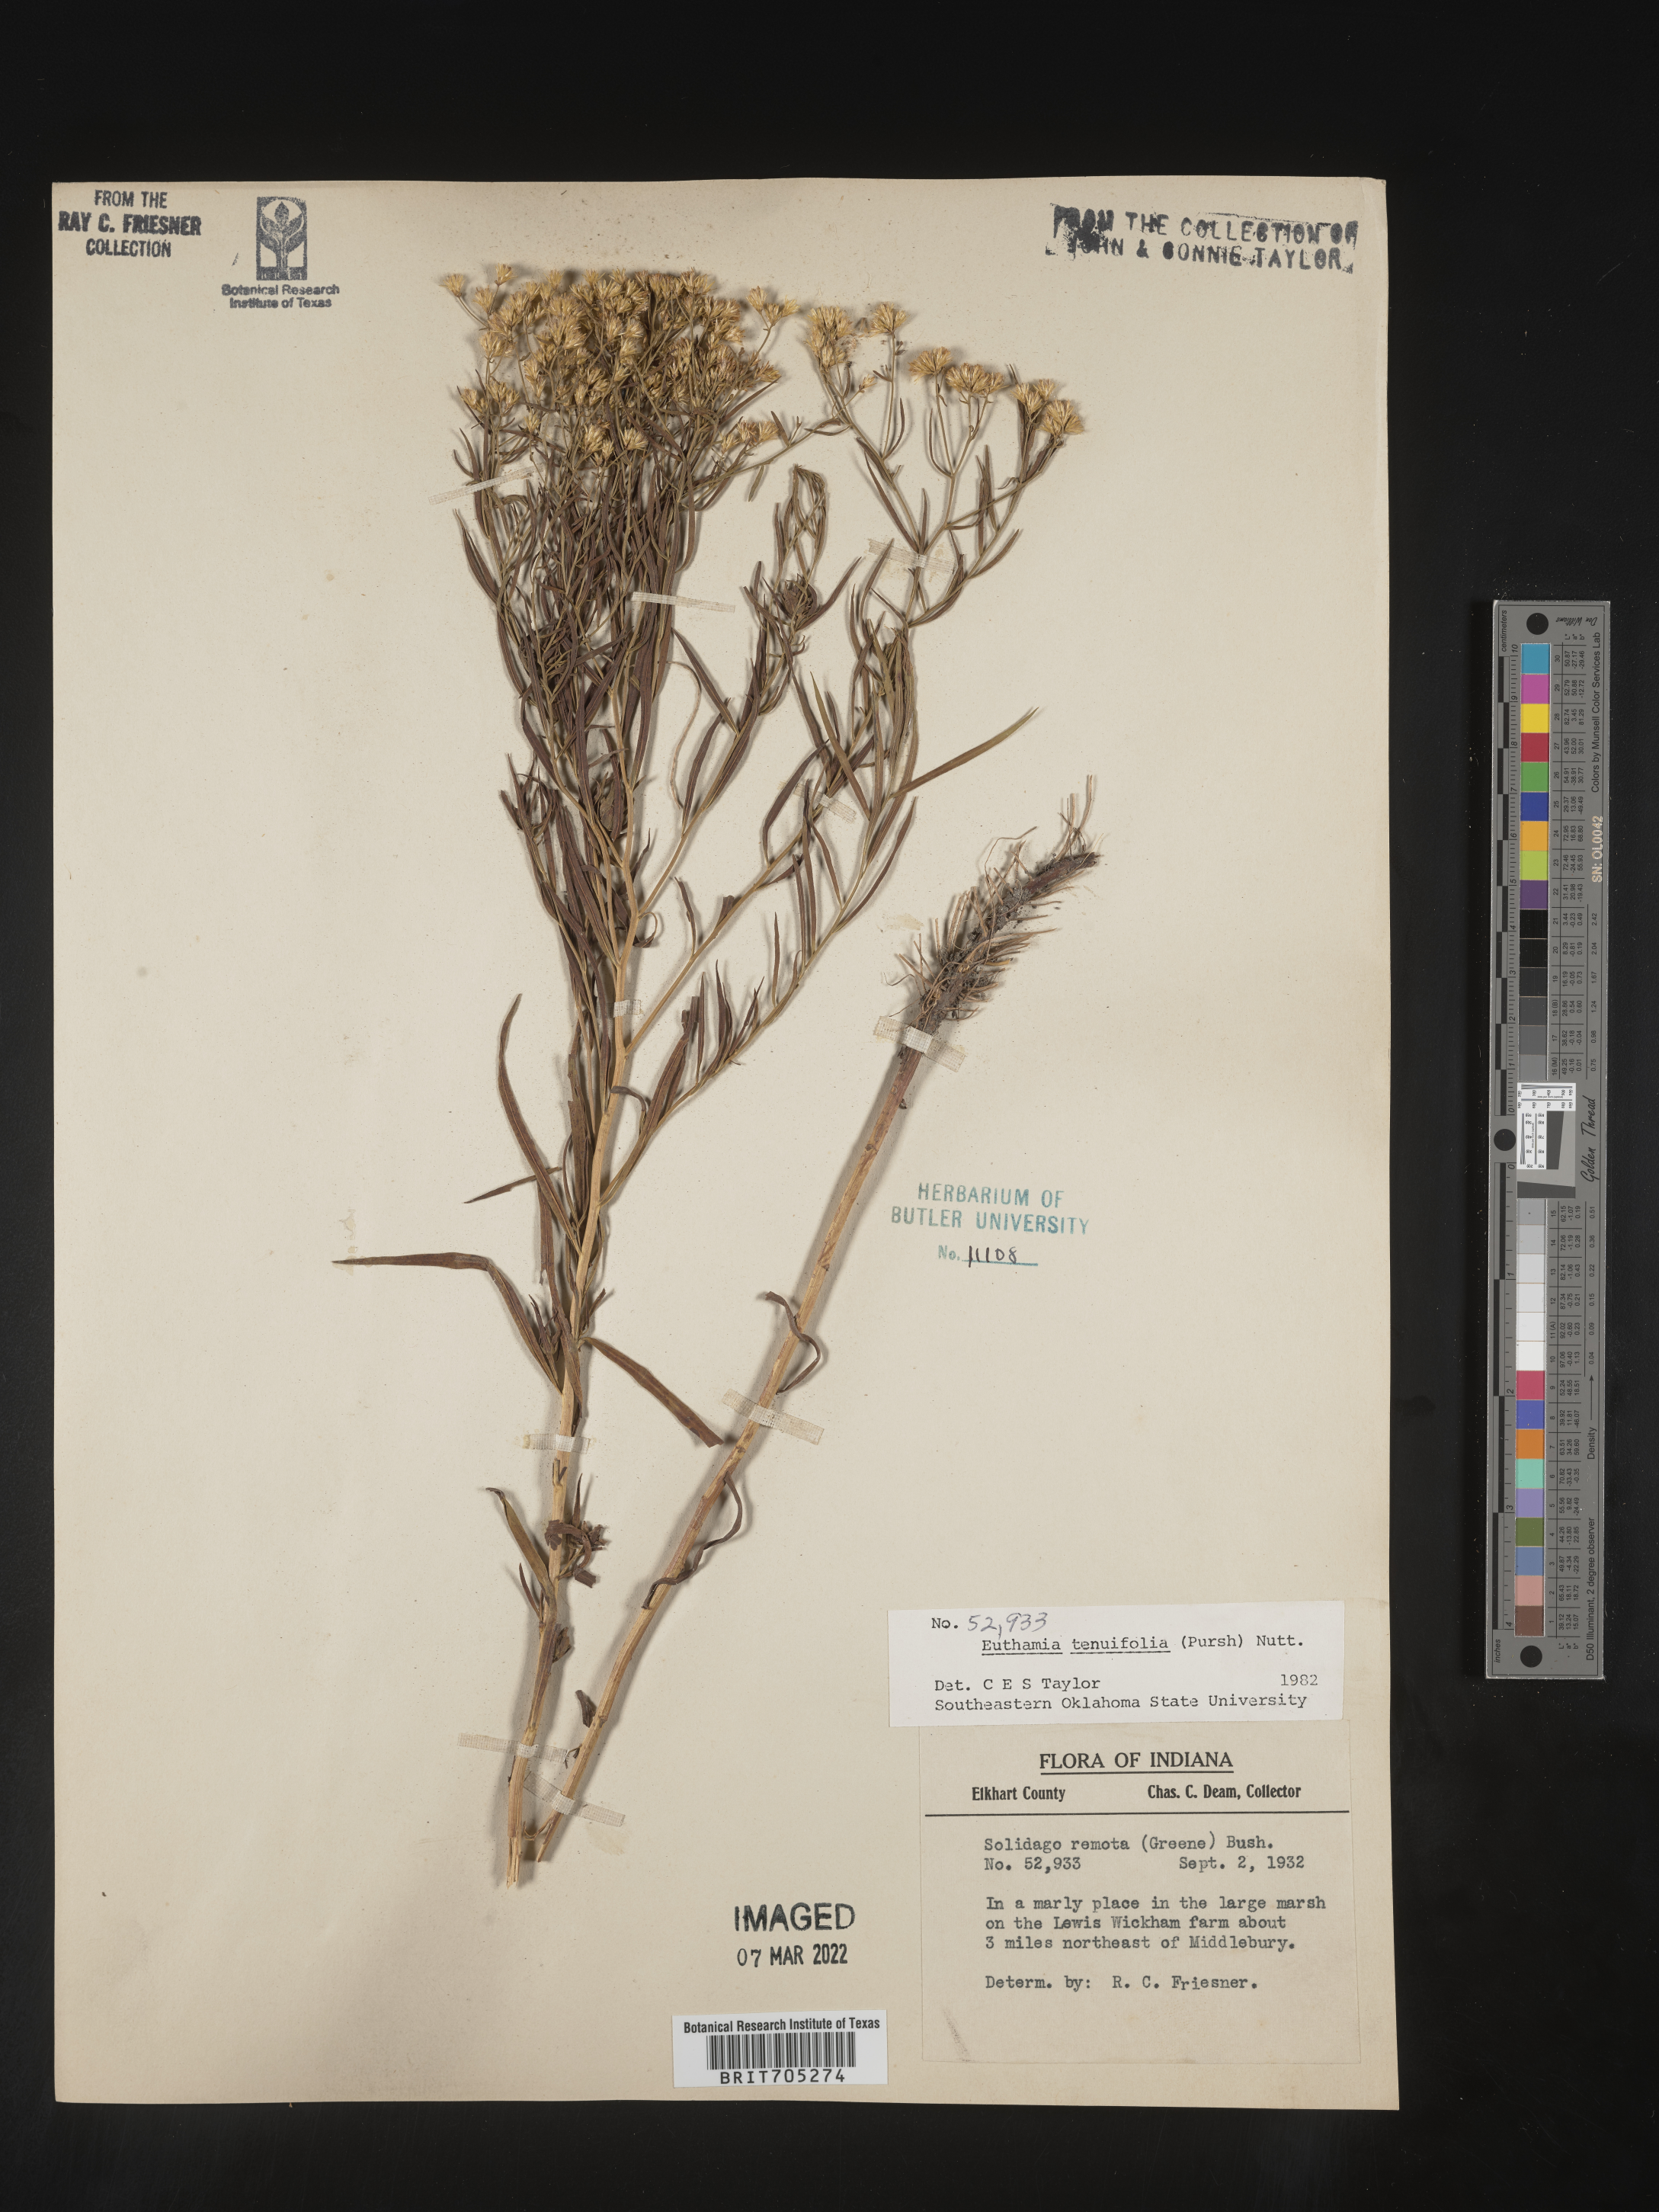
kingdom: Plantae
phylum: Tracheophyta
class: Magnoliopsida
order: Asterales
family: Asteraceae
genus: Euthamia
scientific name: Euthamia gymnospermoides
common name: Great plains goldentop
